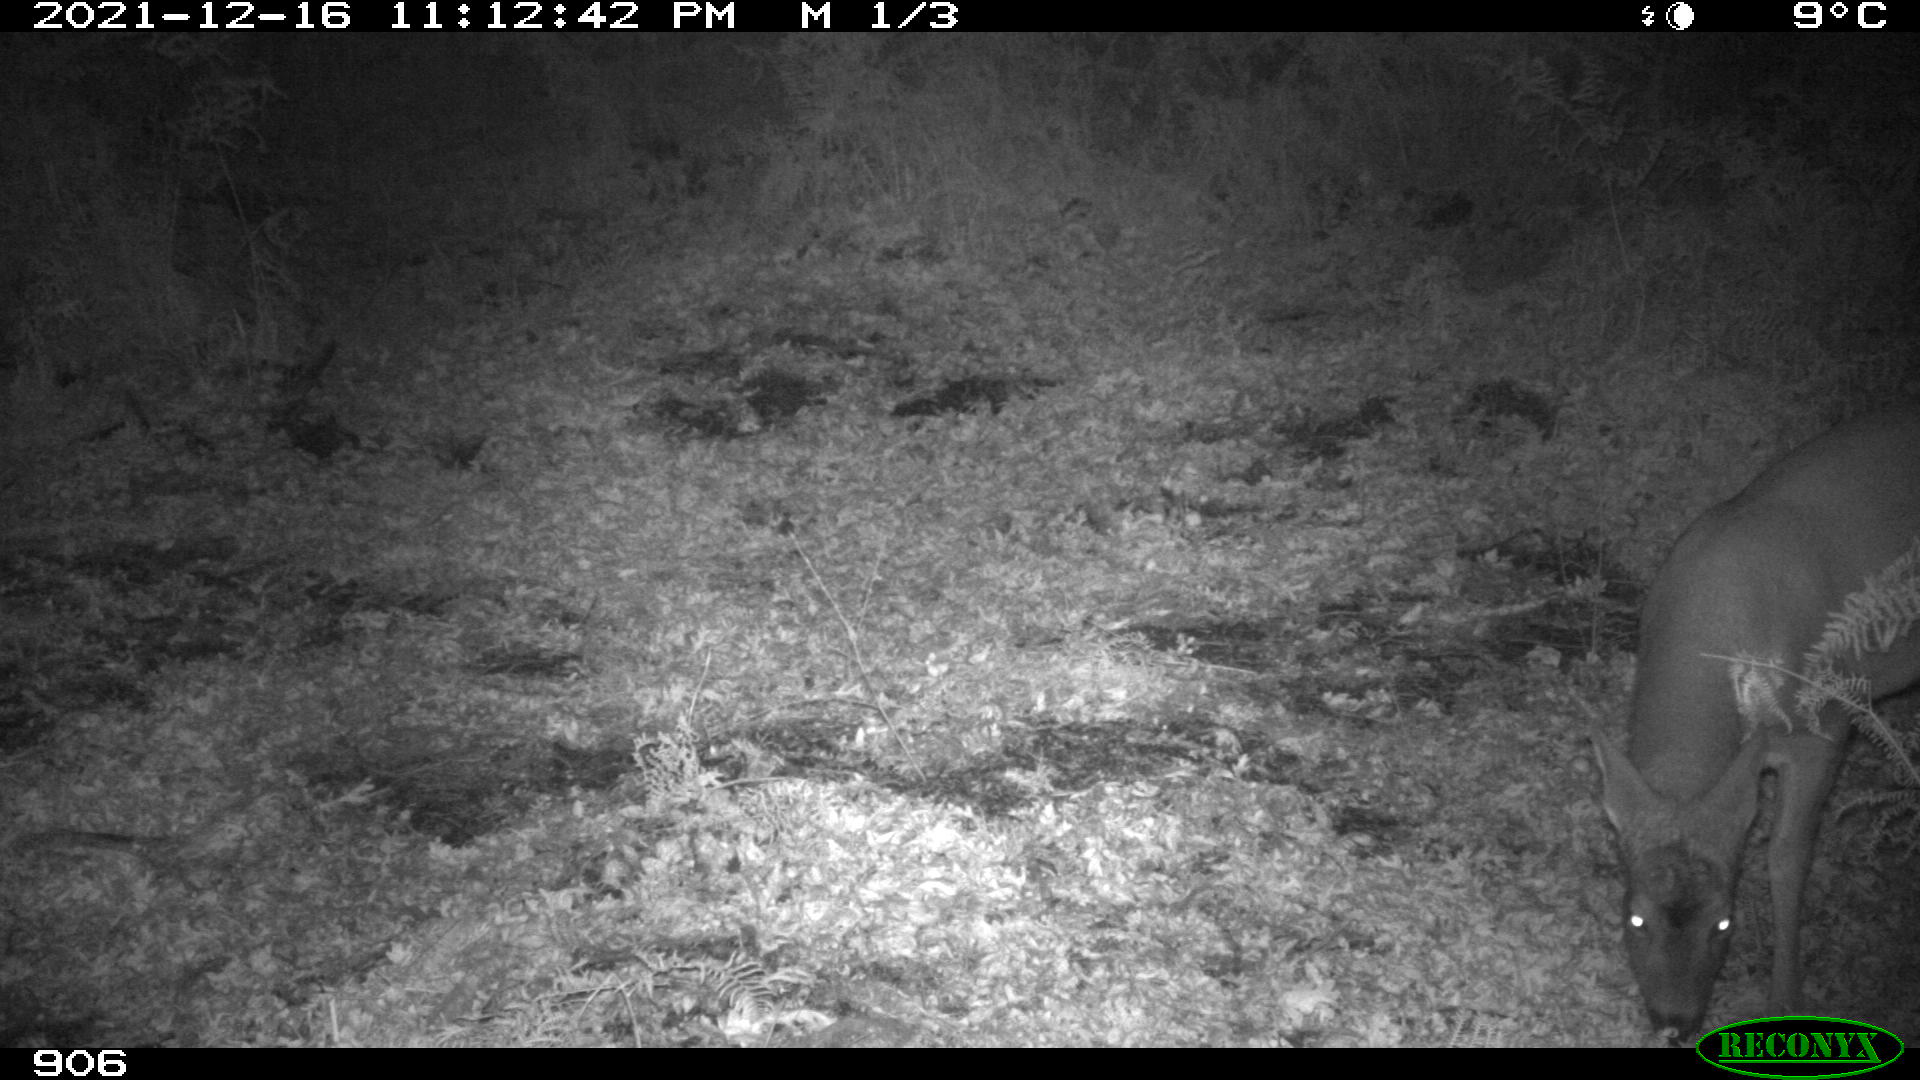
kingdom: Animalia
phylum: Chordata
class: Mammalia
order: Artiodactyla
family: Cervidae
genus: Capreolus
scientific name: Capreolus capreolus
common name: Western roe deer
